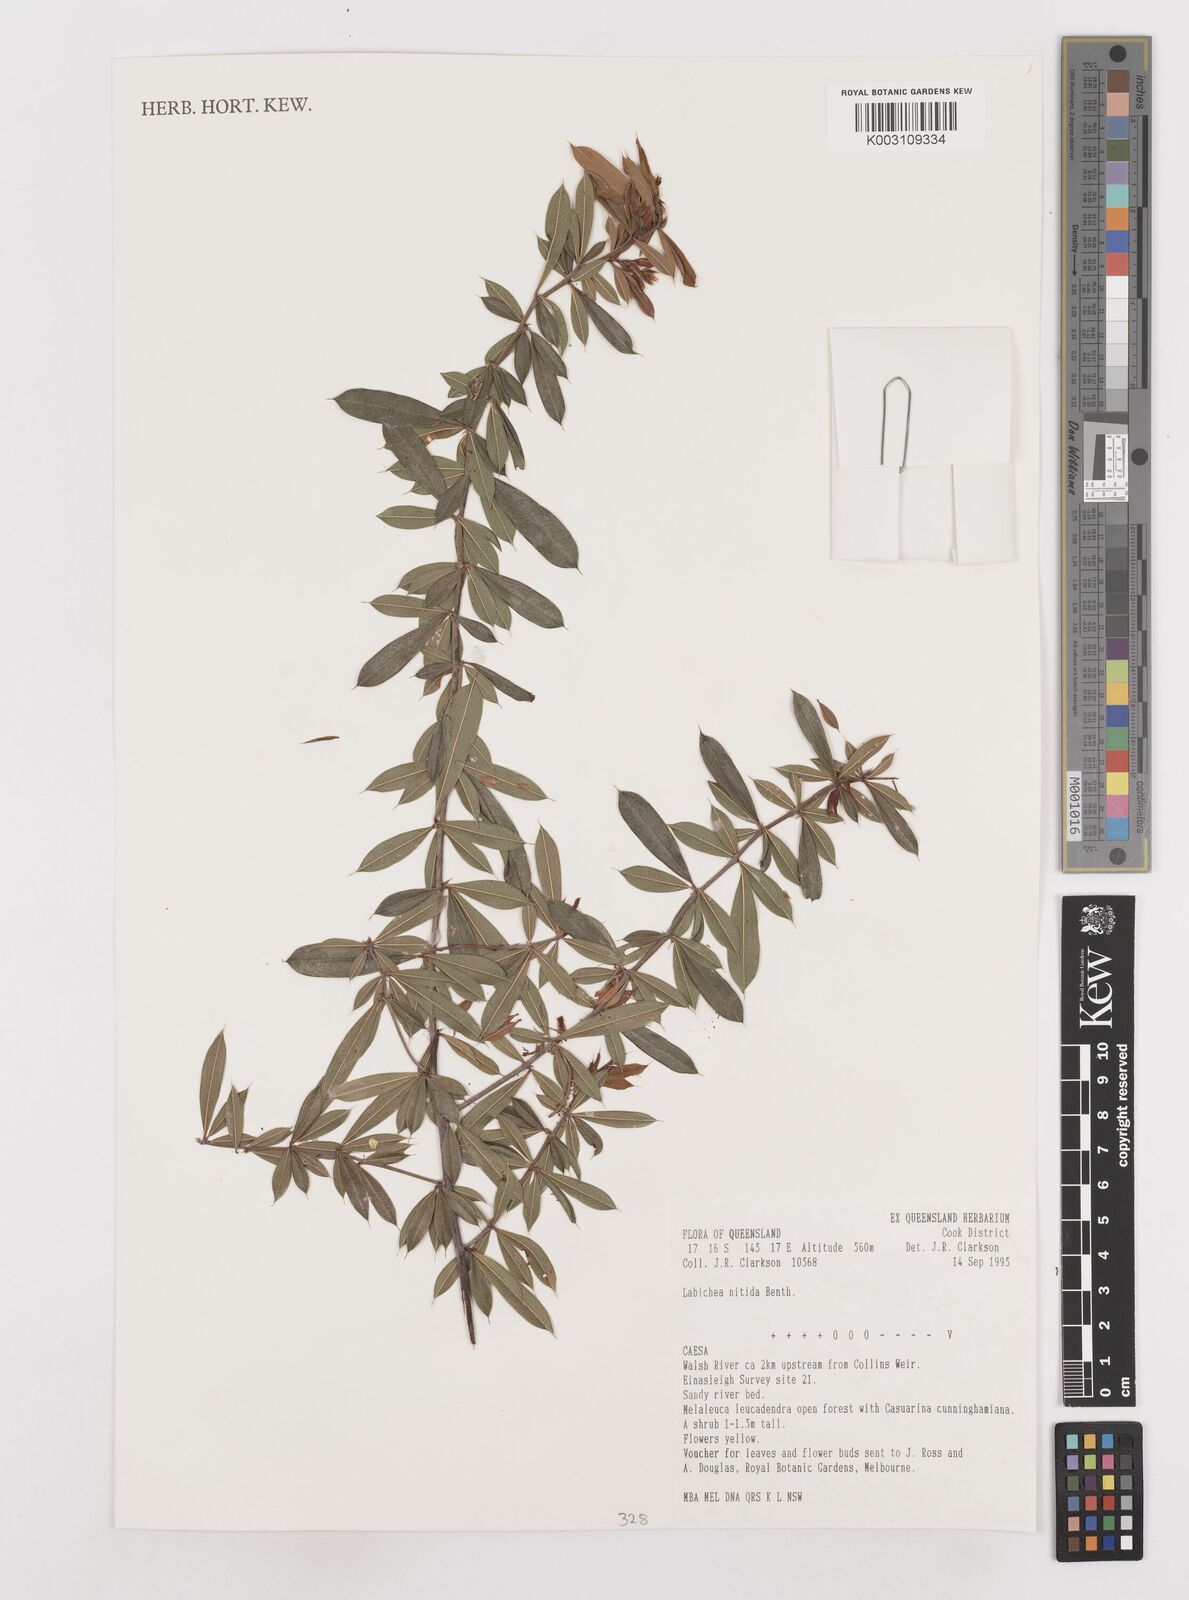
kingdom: Plantae
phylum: Tracheophyta
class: Magnoliopsida
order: Fabales
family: Fabaceae
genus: Labichea
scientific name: Labichea brassii
